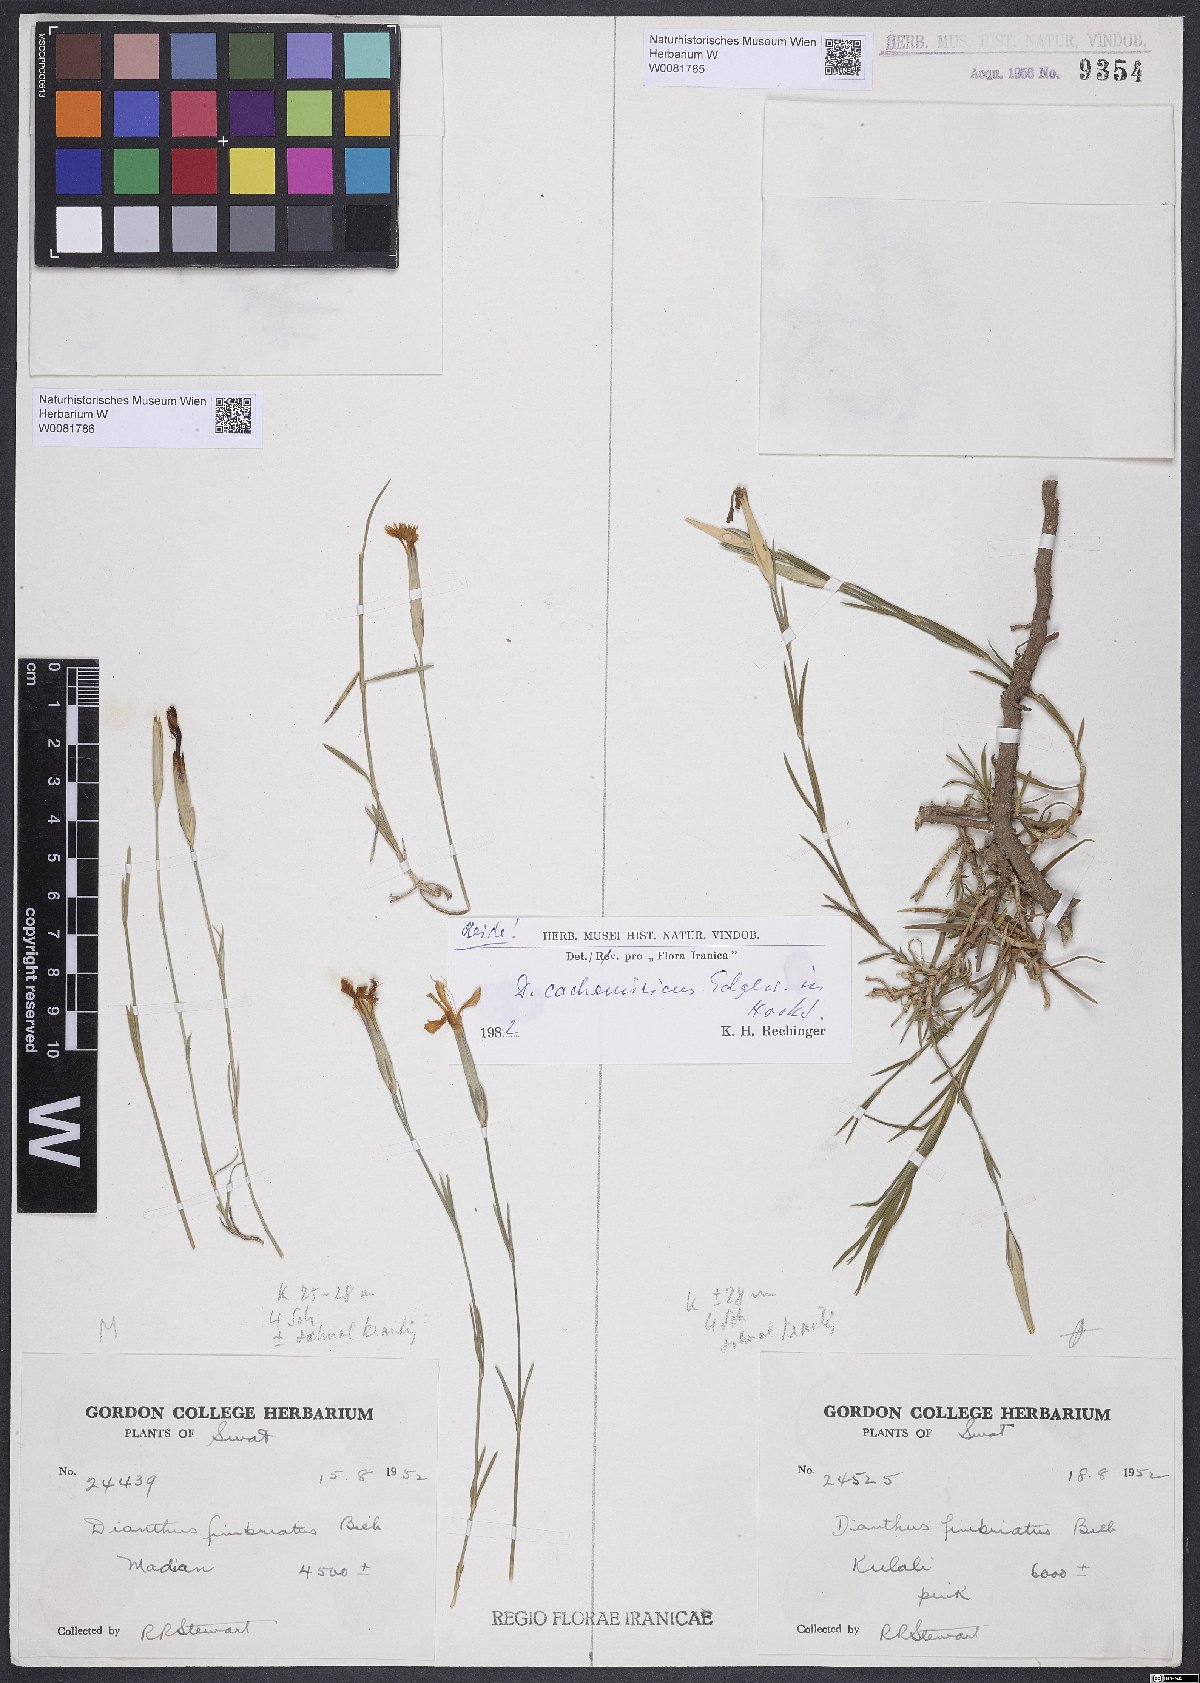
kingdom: Plantae
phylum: Tracheophyta
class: Magnoliopsida
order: Caryophyllales
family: Caryophyllaceae
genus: Dianthus
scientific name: Dianthus cachemiricus
